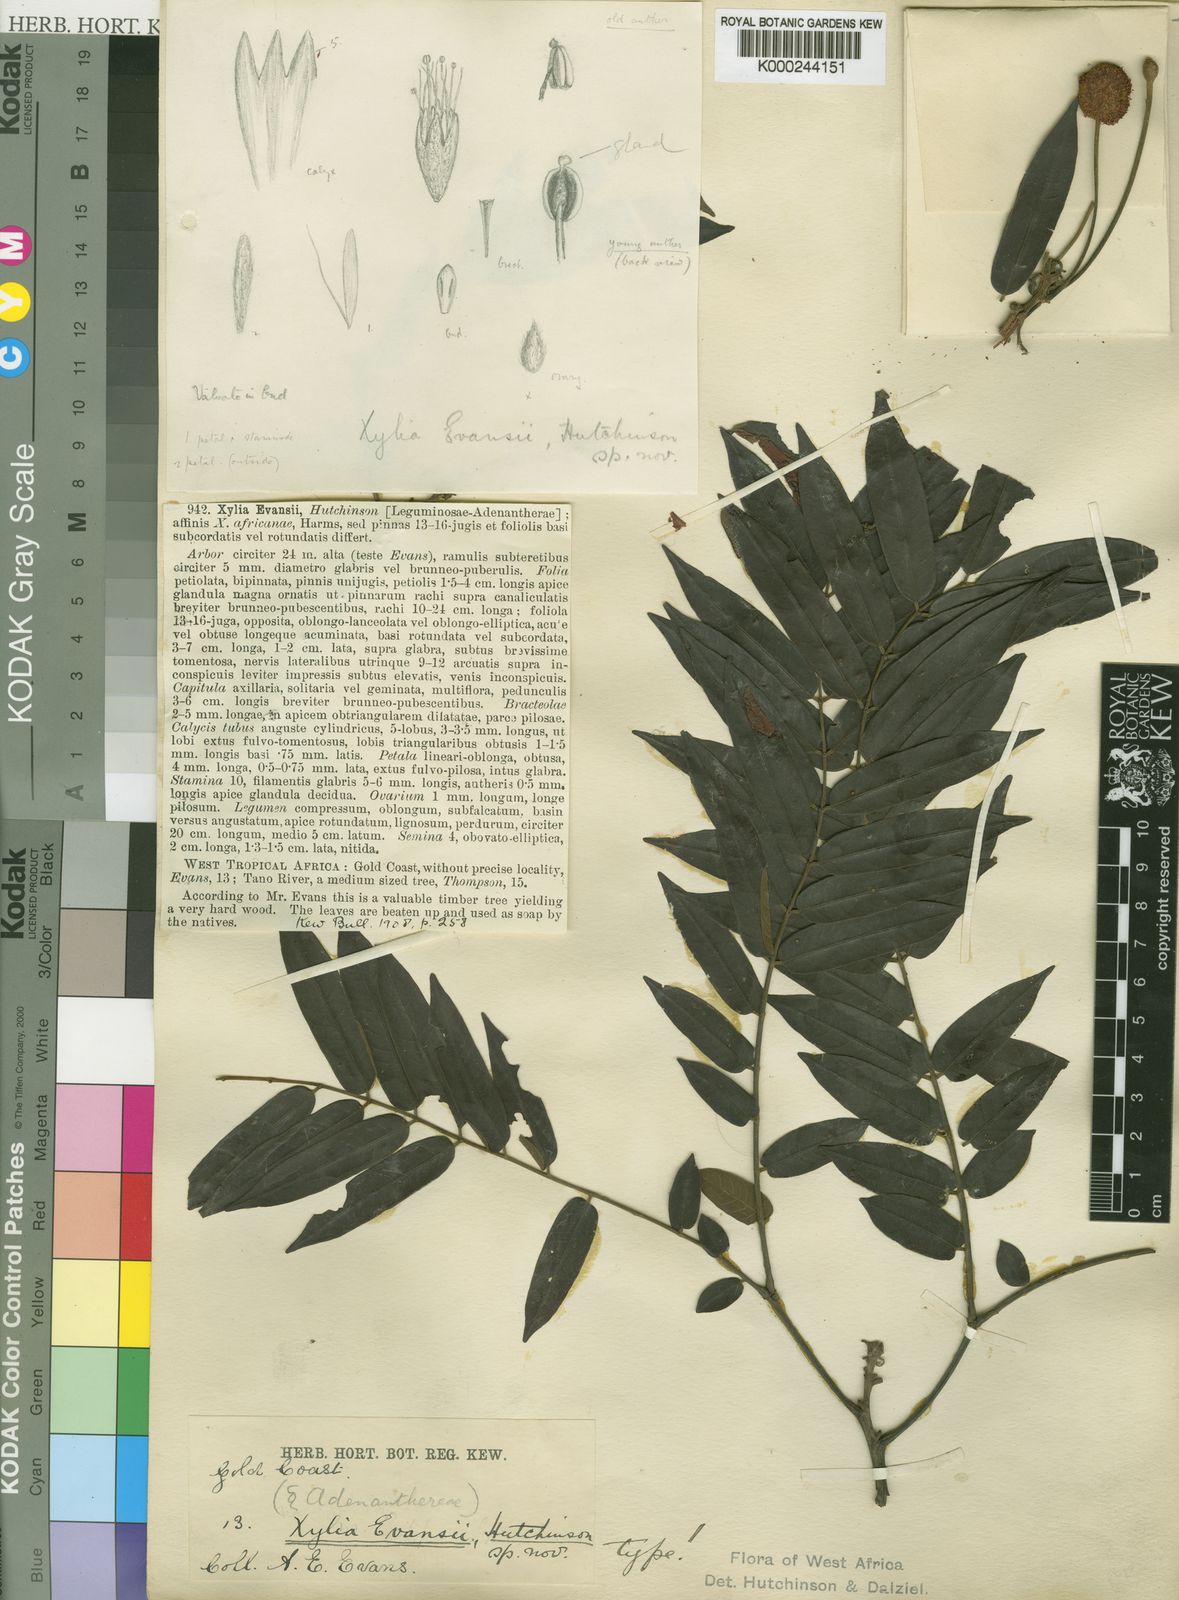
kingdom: Plantae
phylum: Tracheophyta
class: Magnoliopsida
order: Fabales
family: Fabaceae
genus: Xylia
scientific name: Xylia evansii
